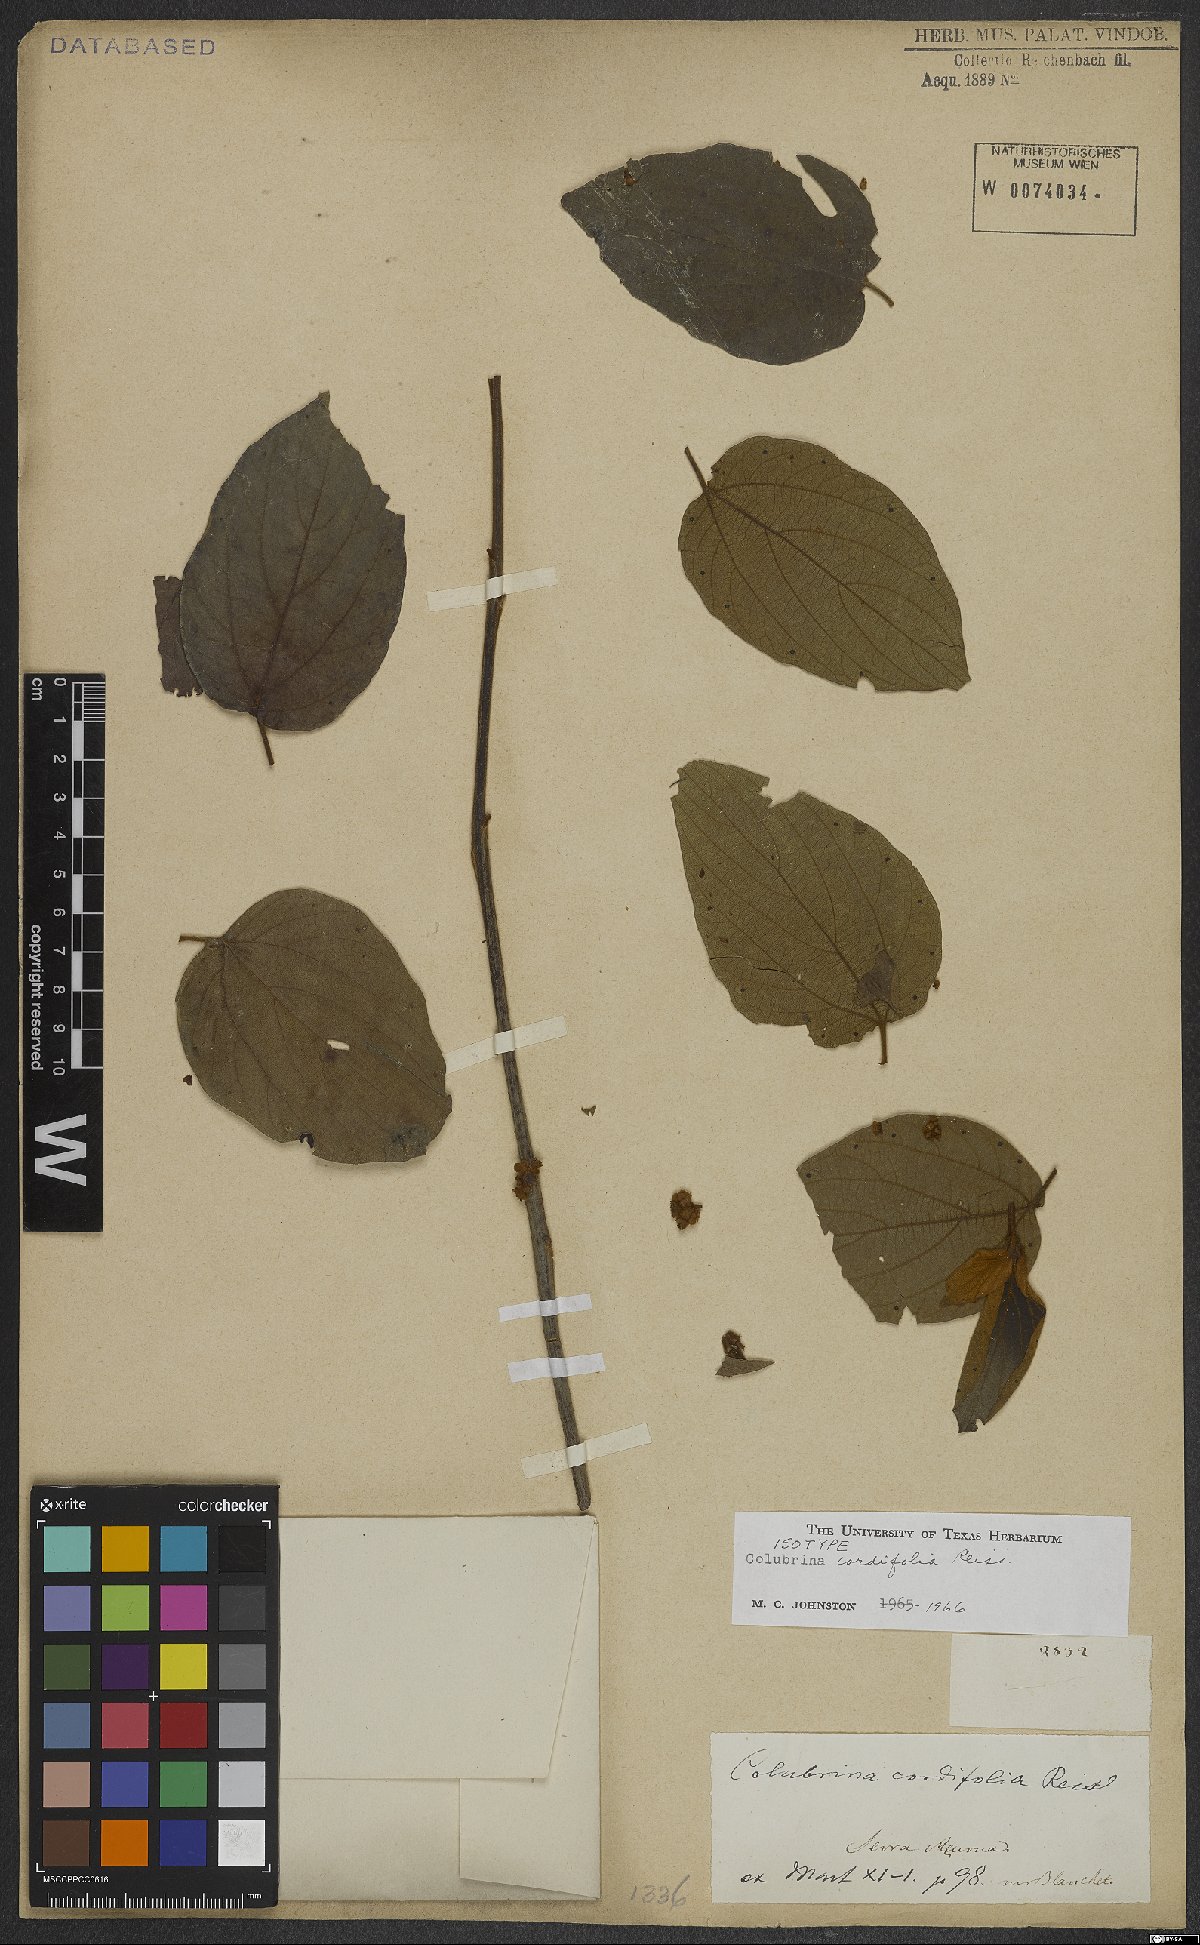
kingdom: Plantae
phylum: Tracheophyta
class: Magnoliopsida
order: Rosales
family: Rhamnaceae
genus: Colubrina
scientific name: Colubrina cordifolia
